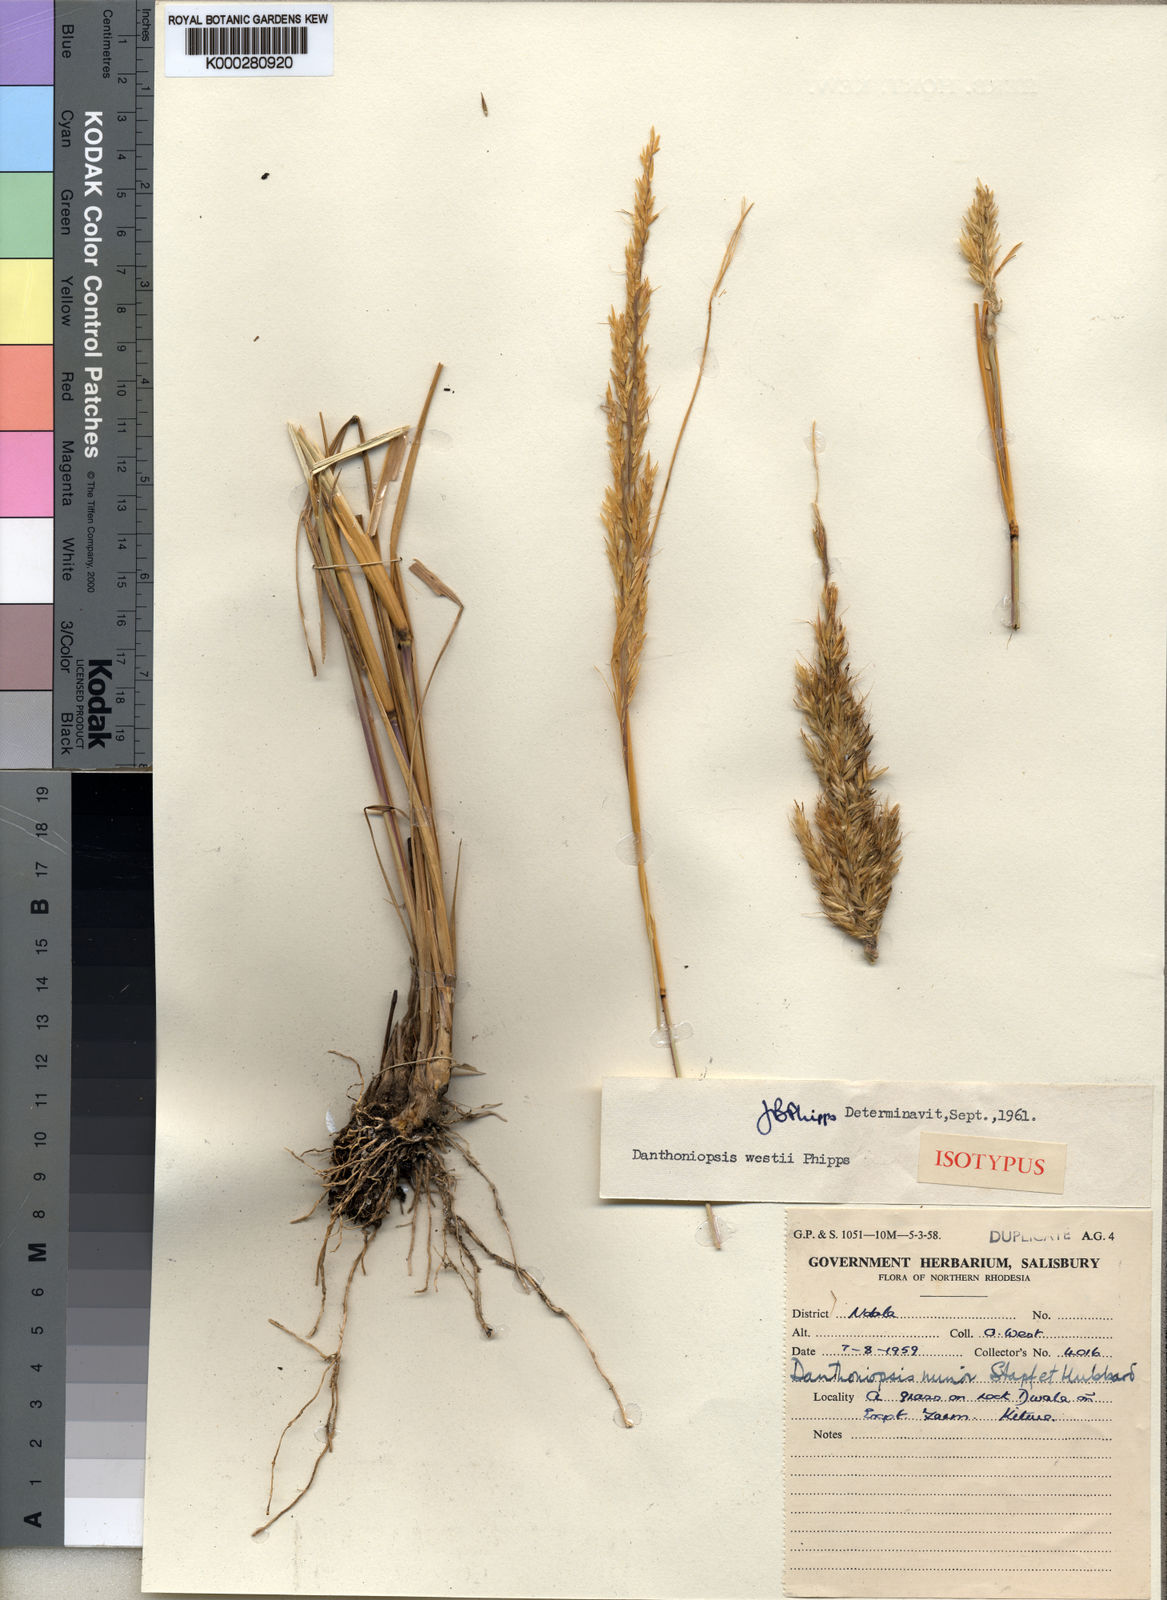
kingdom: Plantae
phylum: Tracheophyta
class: Liliopsida
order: Poales
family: Poaceae
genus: Danthoniopsis
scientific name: Danthoniopsis viridis
